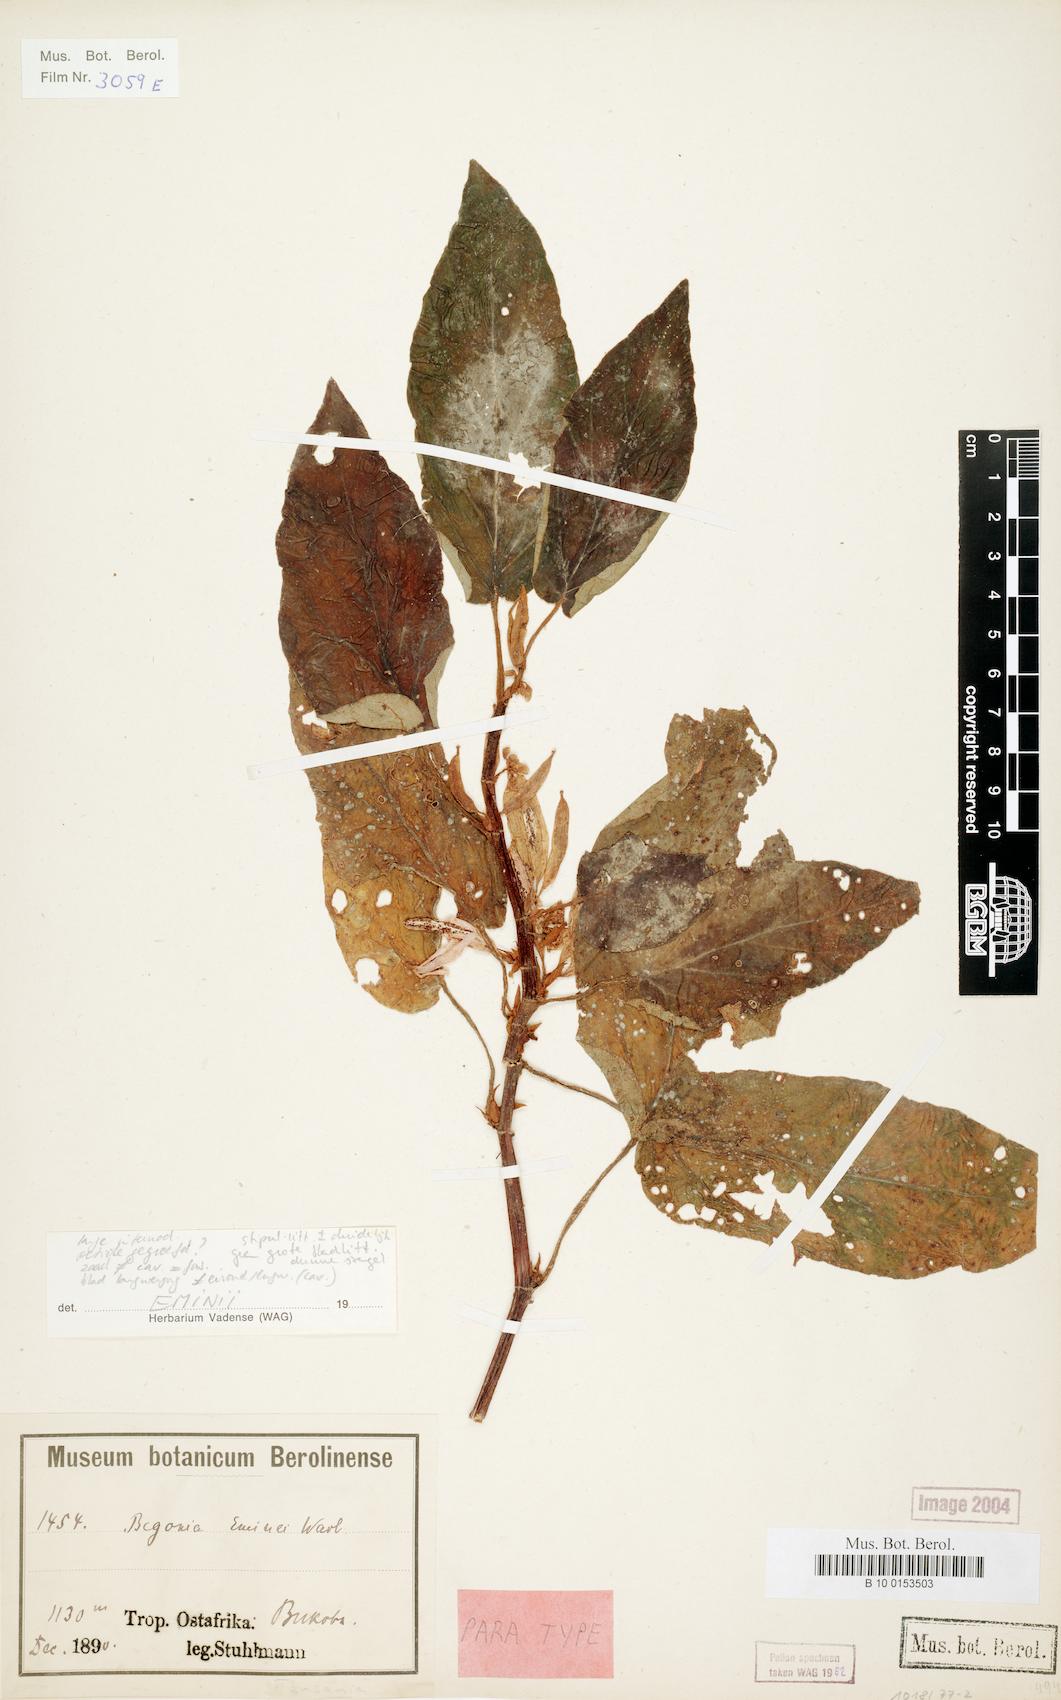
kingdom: Plantae
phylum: Tracheophyta
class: Magnoliopsida
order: Cucurbitales
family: Begoniaceae
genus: Begonia
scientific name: Begonia eminii
